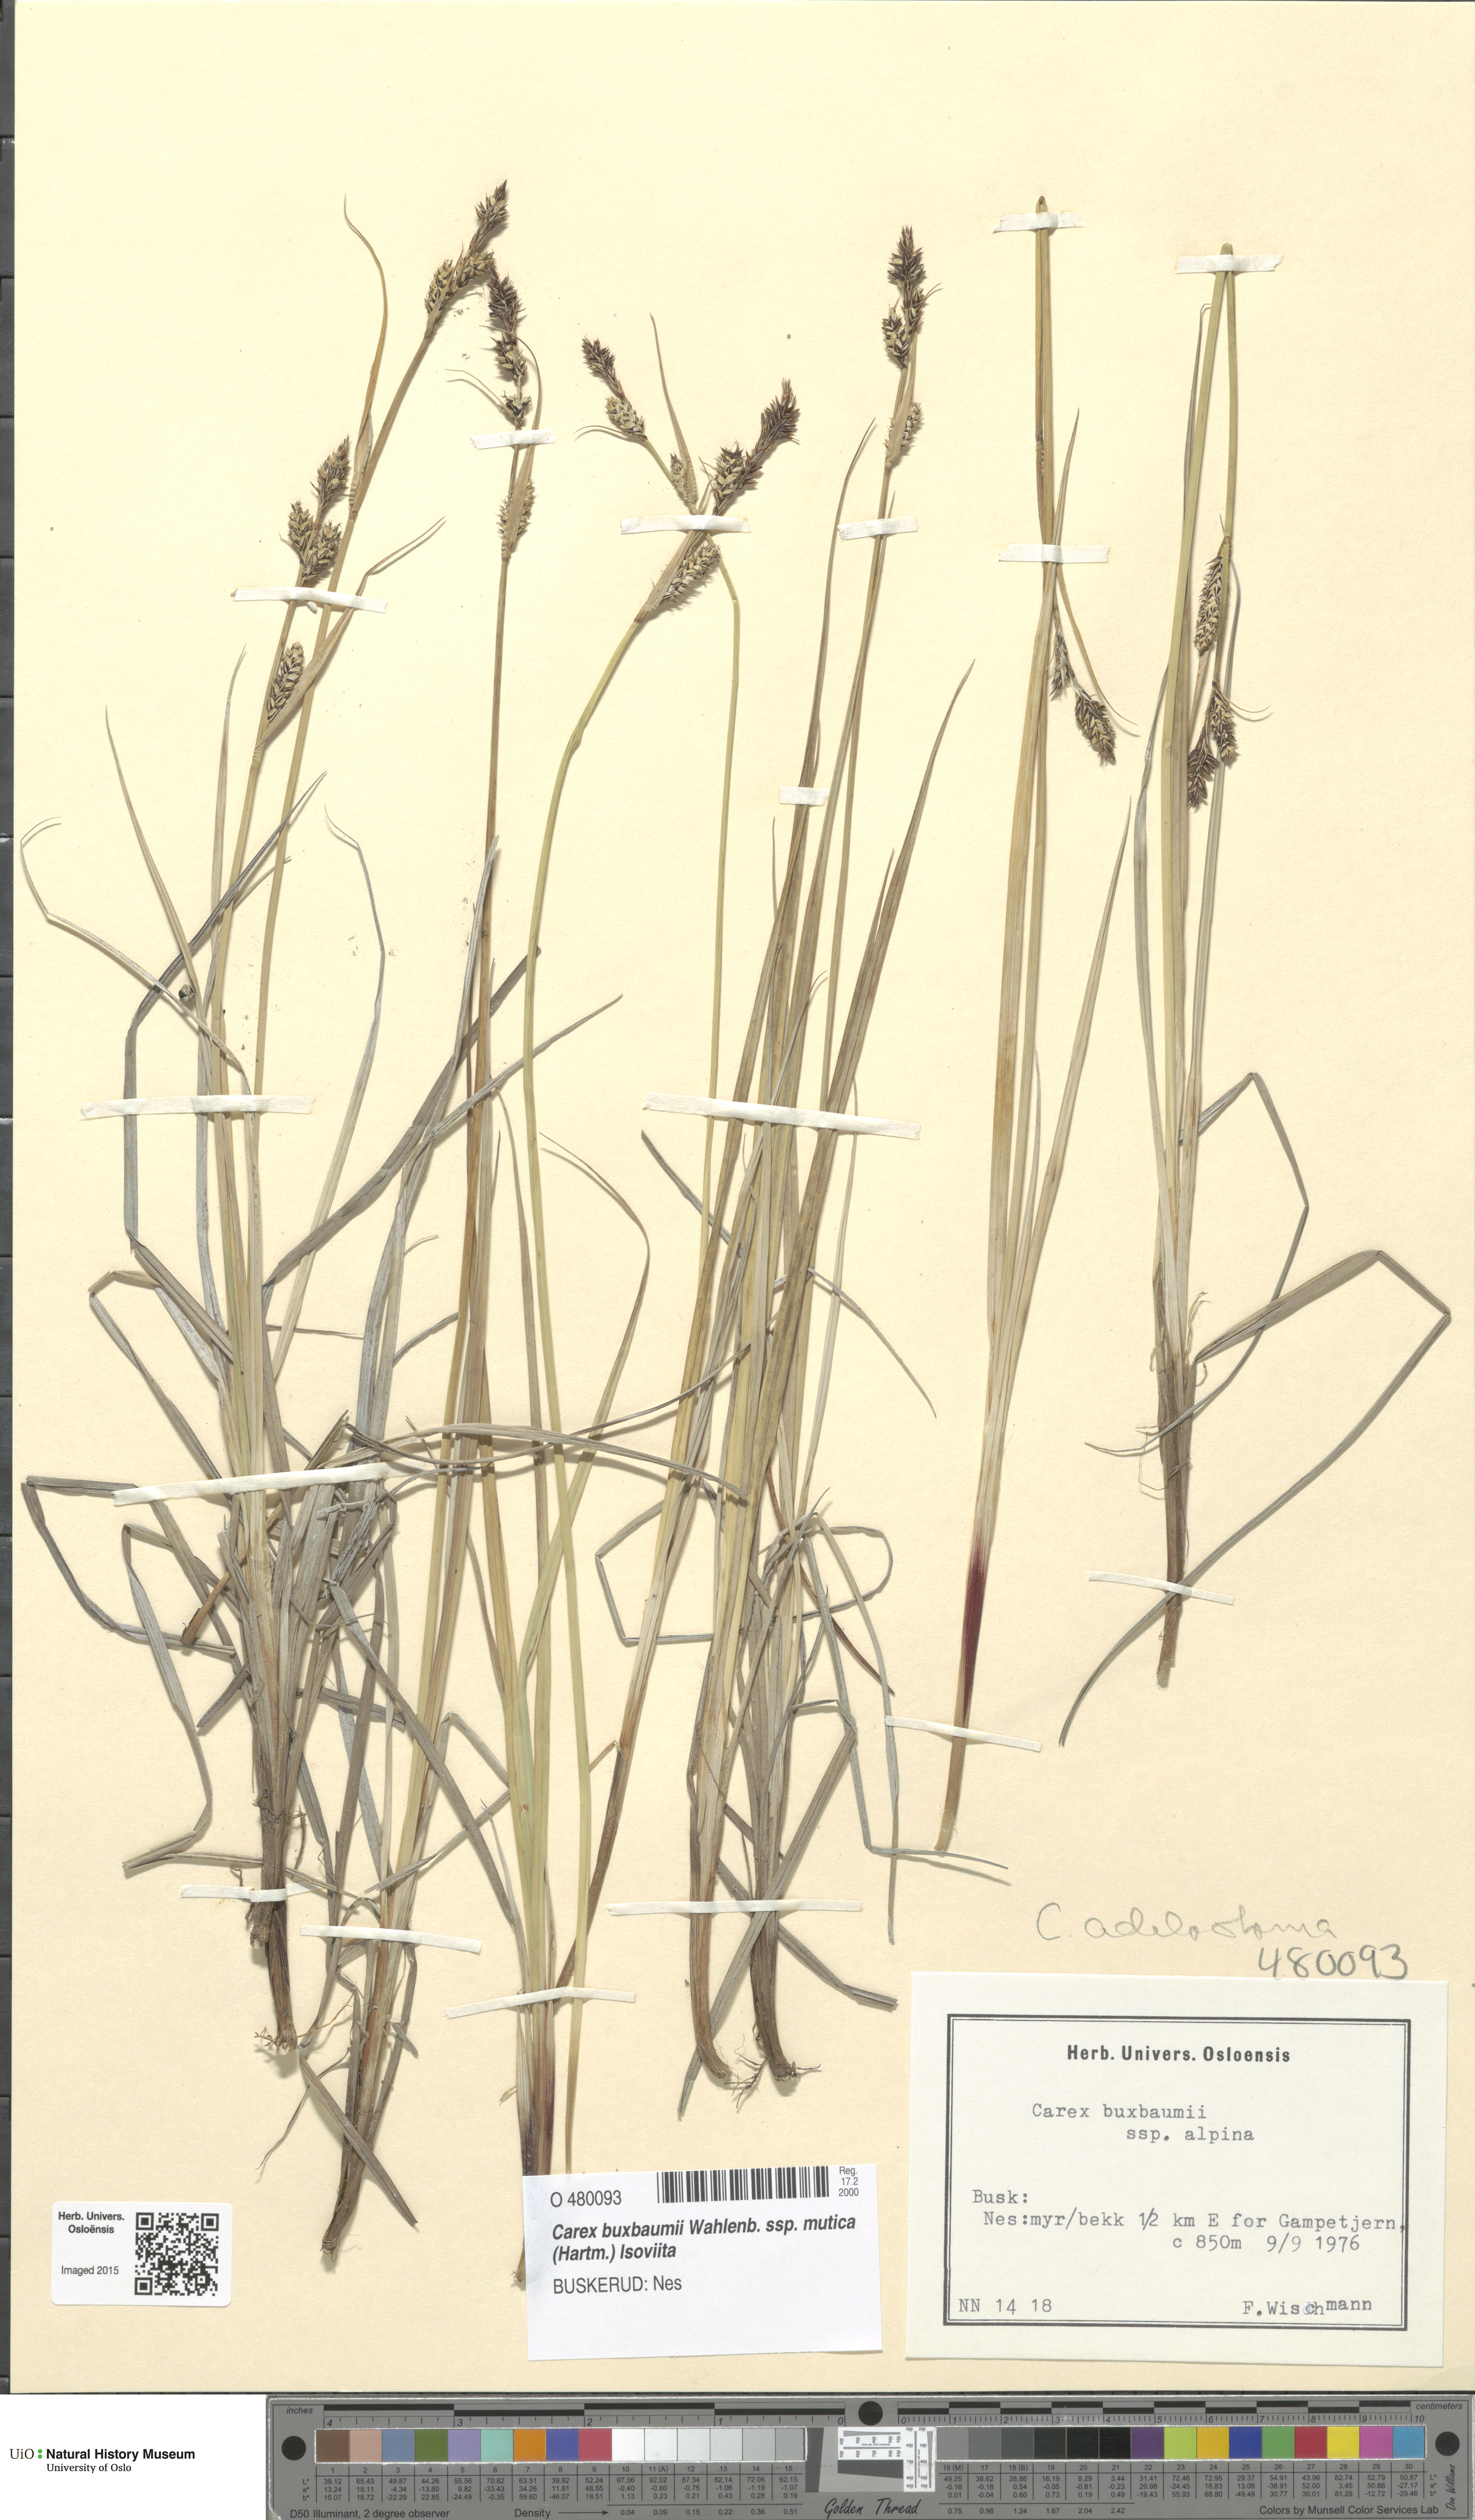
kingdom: Plantae
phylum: Tracheophyta
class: Liliopsida
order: Poales
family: Cyperaceae
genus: Carex
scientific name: Carex adelostoma
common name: Circumpolar sedge
